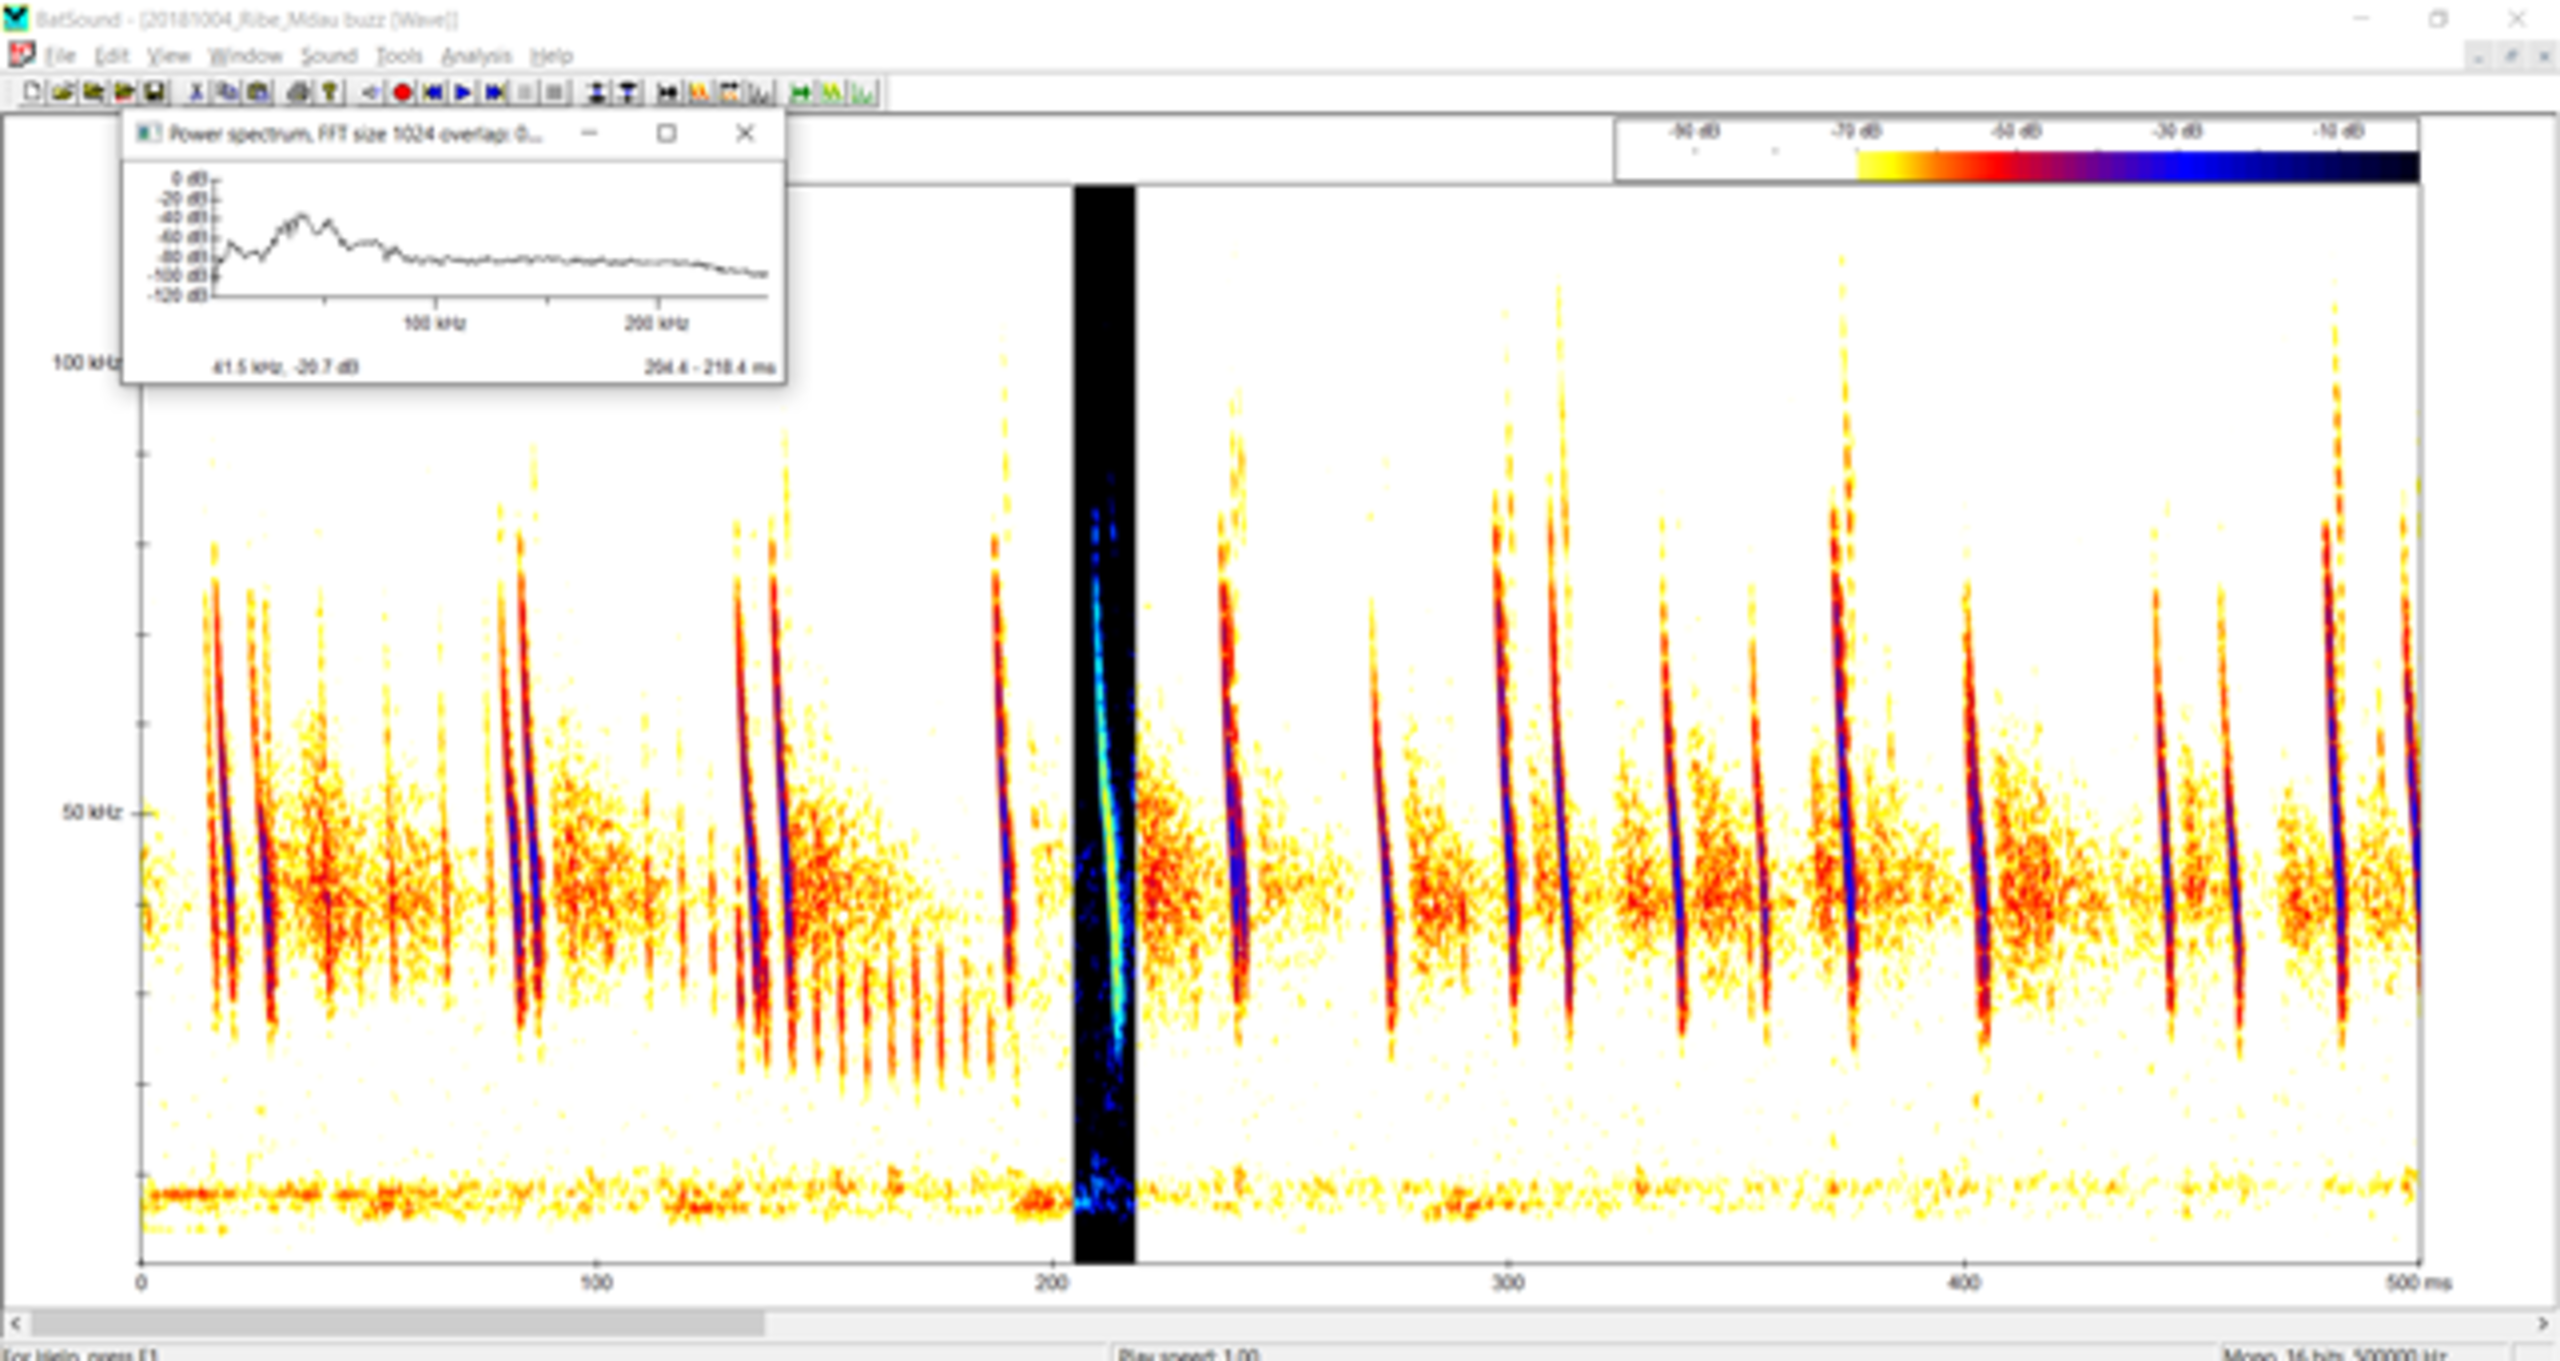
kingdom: Animalia
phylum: Chordata
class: Mammalia
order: Chiroptera
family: Vespertilionidae
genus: Myotis
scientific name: Myotis daubentonii
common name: Vandflagermus
